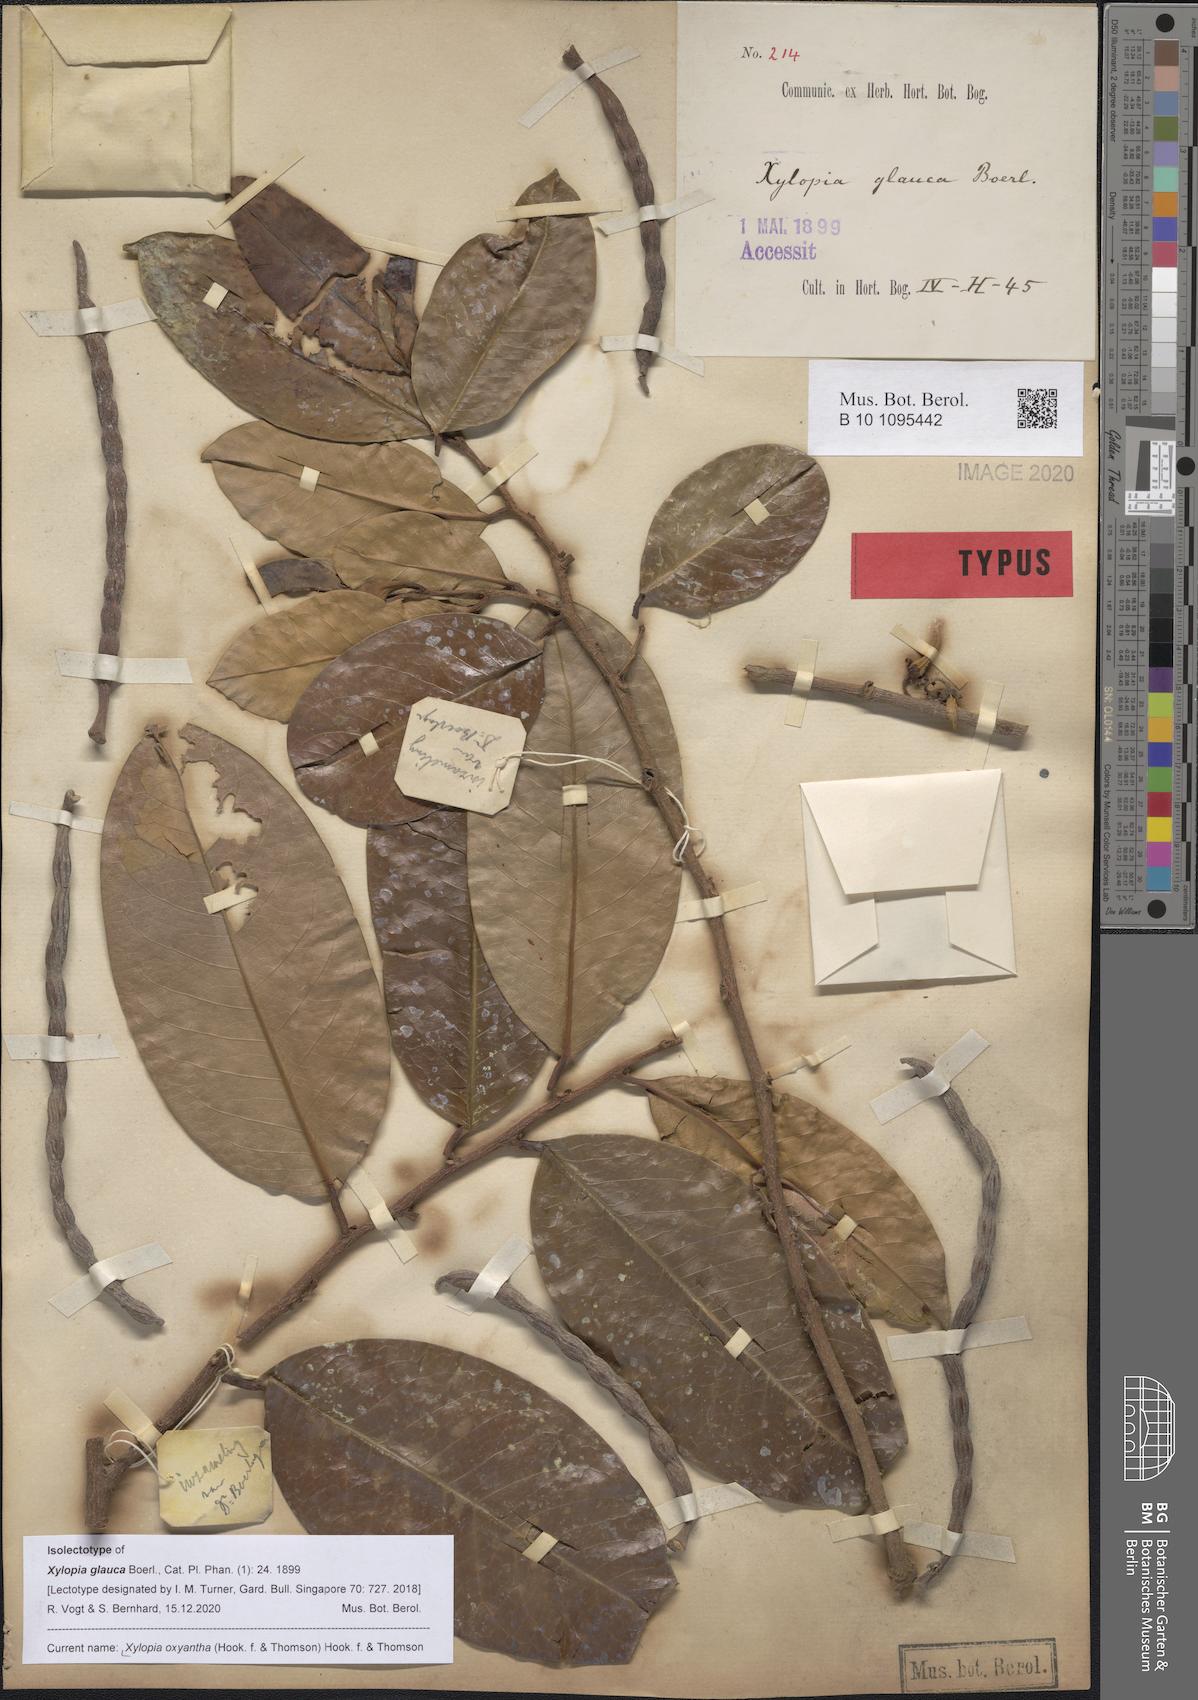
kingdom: Plantae
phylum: Tracheophyta
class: Magnoliopsida
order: Magnoliales
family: Annonaceae
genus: Xylopia
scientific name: Xylopia ferruginea
